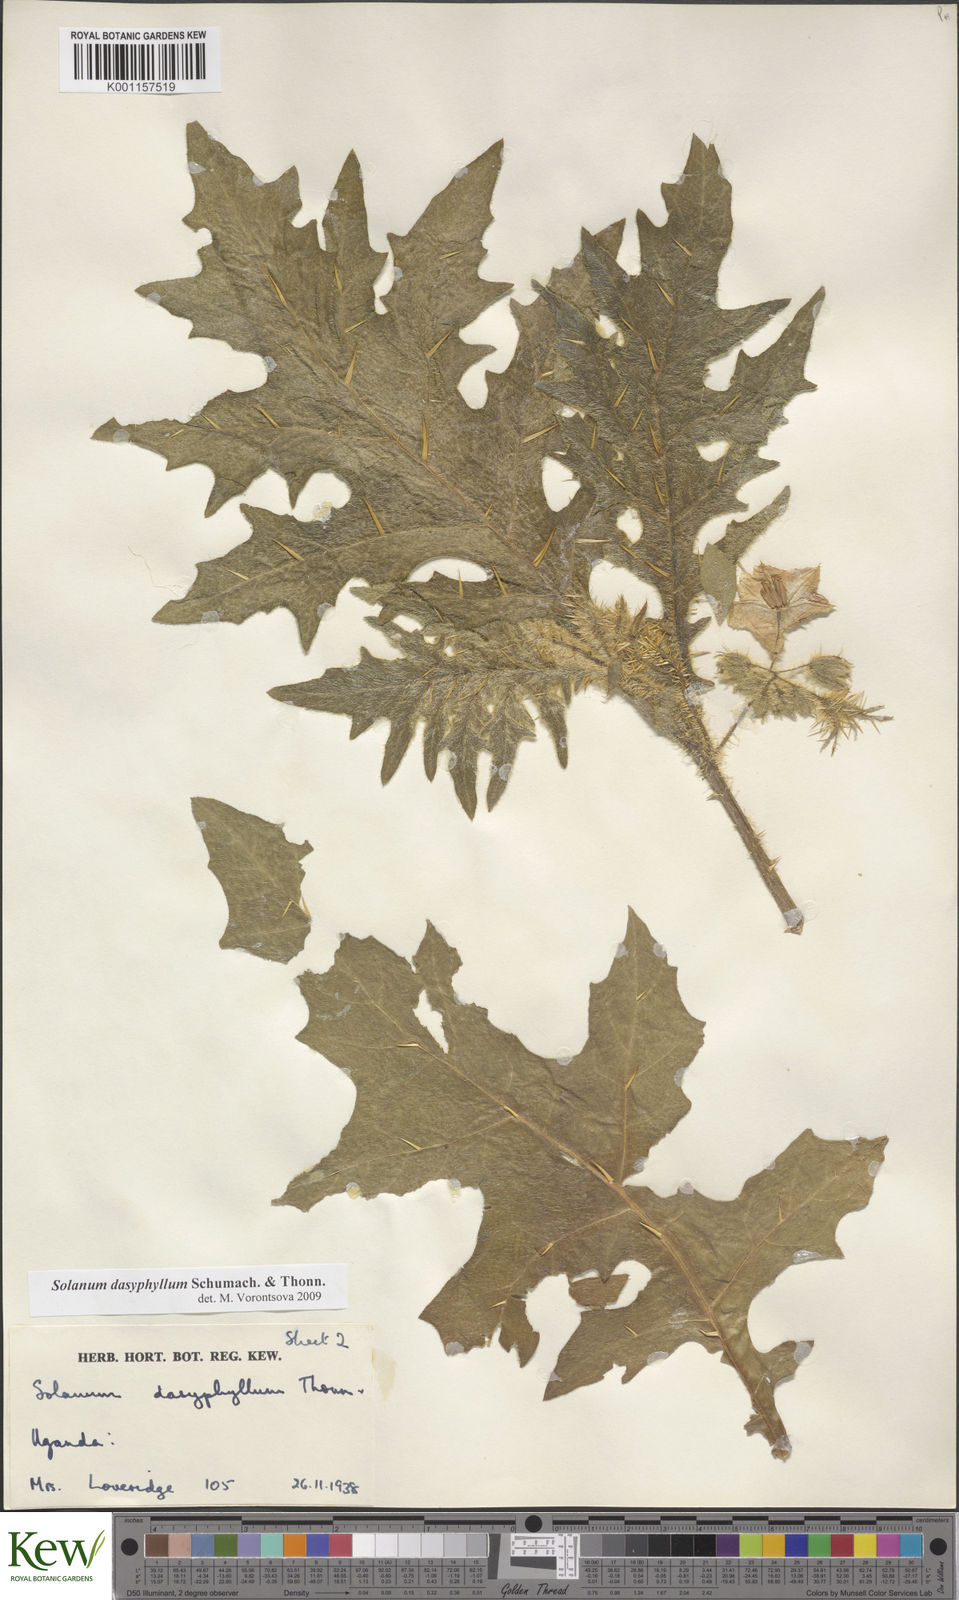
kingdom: Plantae
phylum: Tracheophyta
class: Magnoliopsida
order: Solanales
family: Solanaceae
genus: Solanum
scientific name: Solanum dasyphyllum
